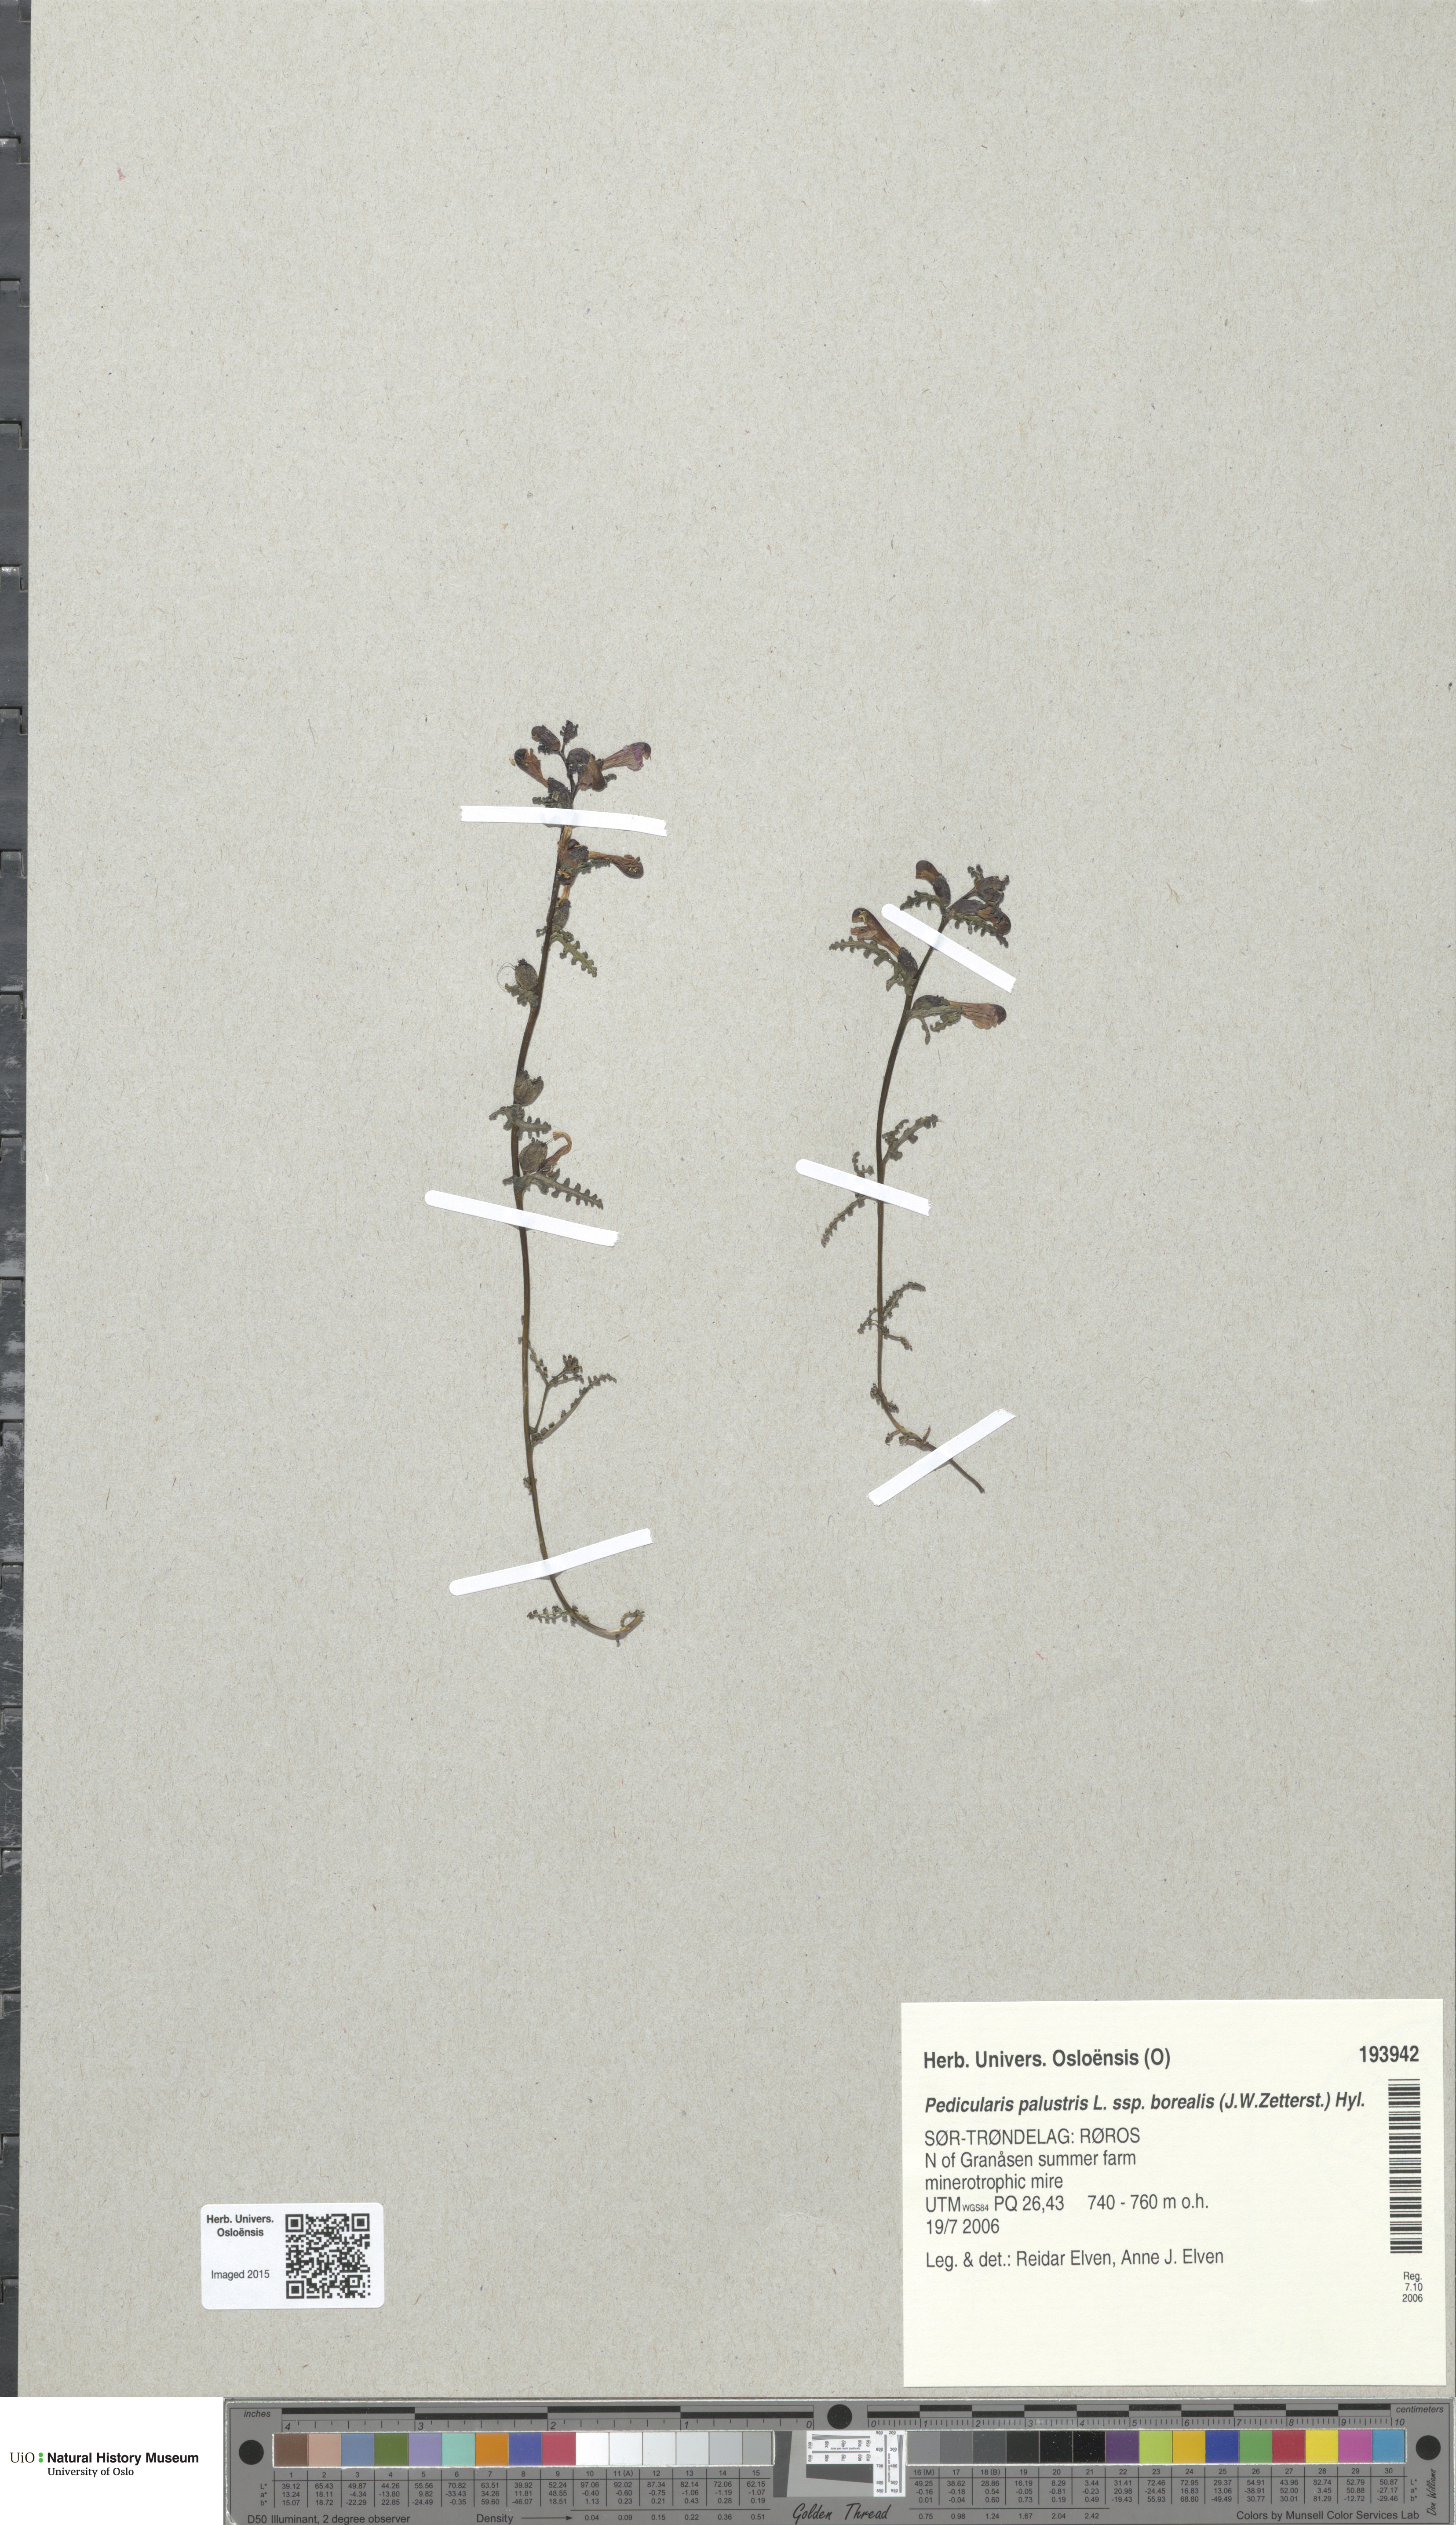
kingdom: Plantae
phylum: Tracheophyta
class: Magnoliopsida
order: Lamiales
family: Orobanchaceae
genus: Pedicularis
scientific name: Pedicularis palustris
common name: Marsh lousewort
